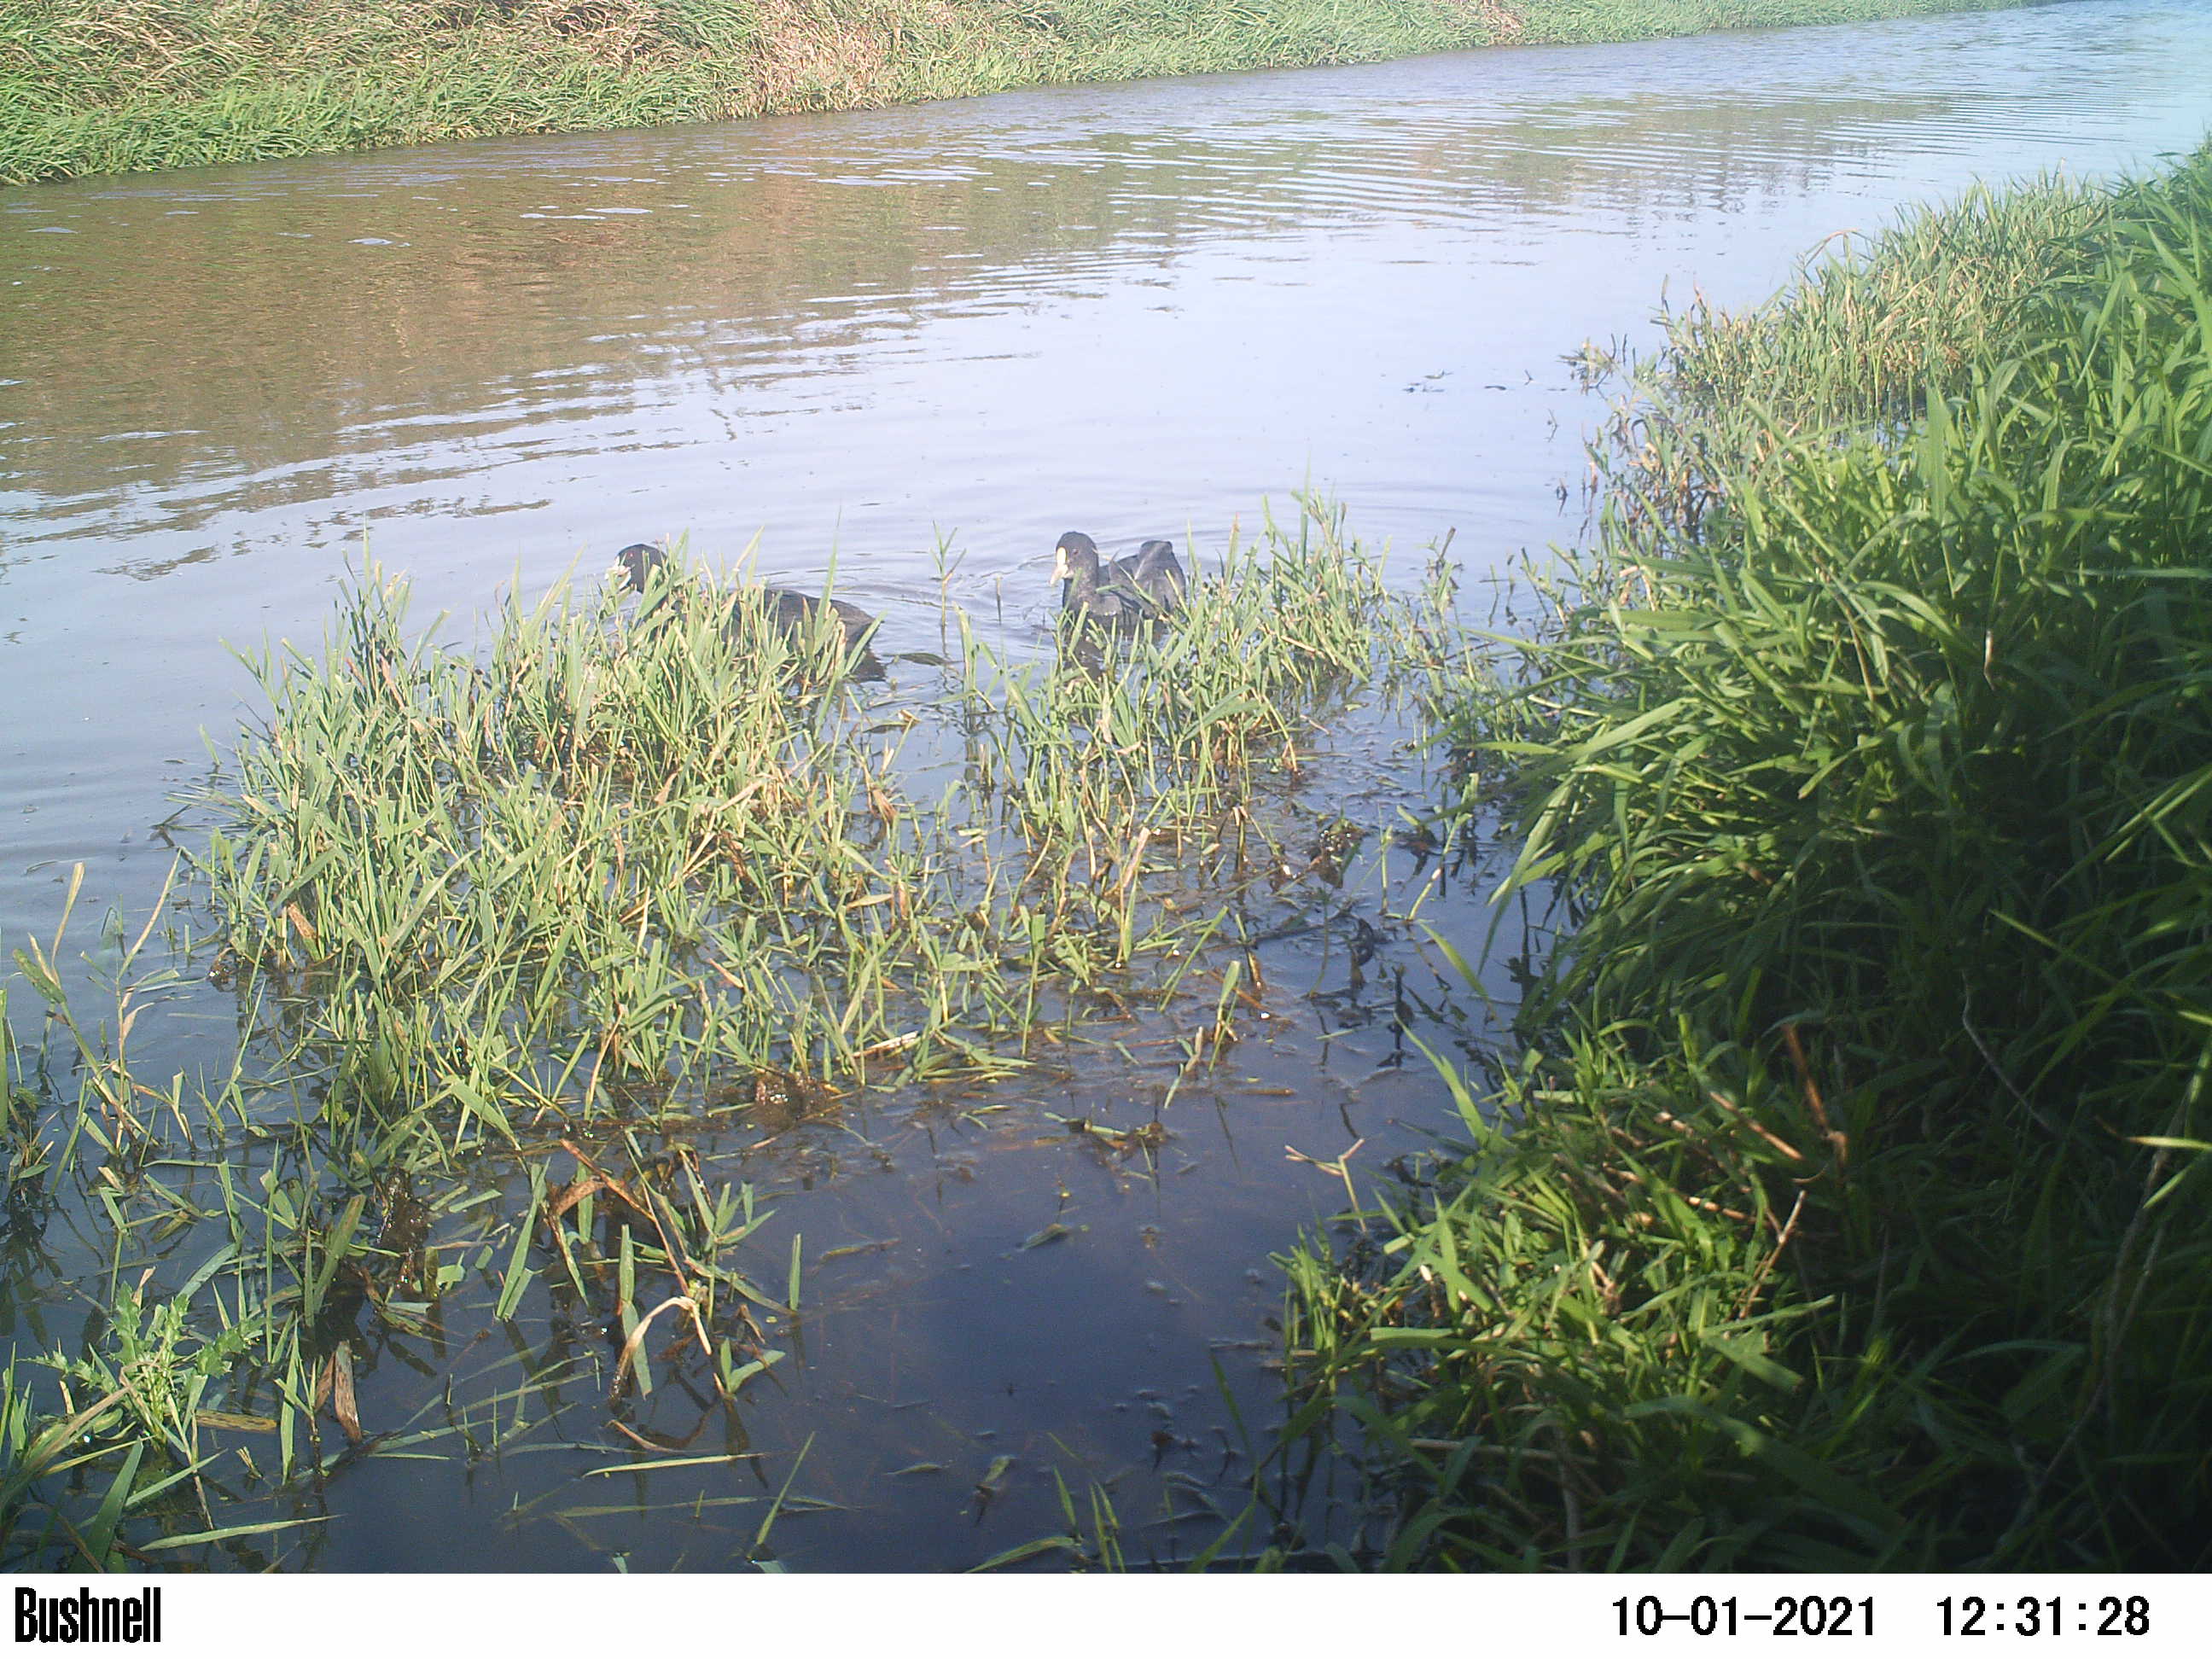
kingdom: Animalia
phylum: Chordata
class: Aves
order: Gruiformes
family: Rallidae
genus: Fulica
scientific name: Fulica atra
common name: Eurasian coot
